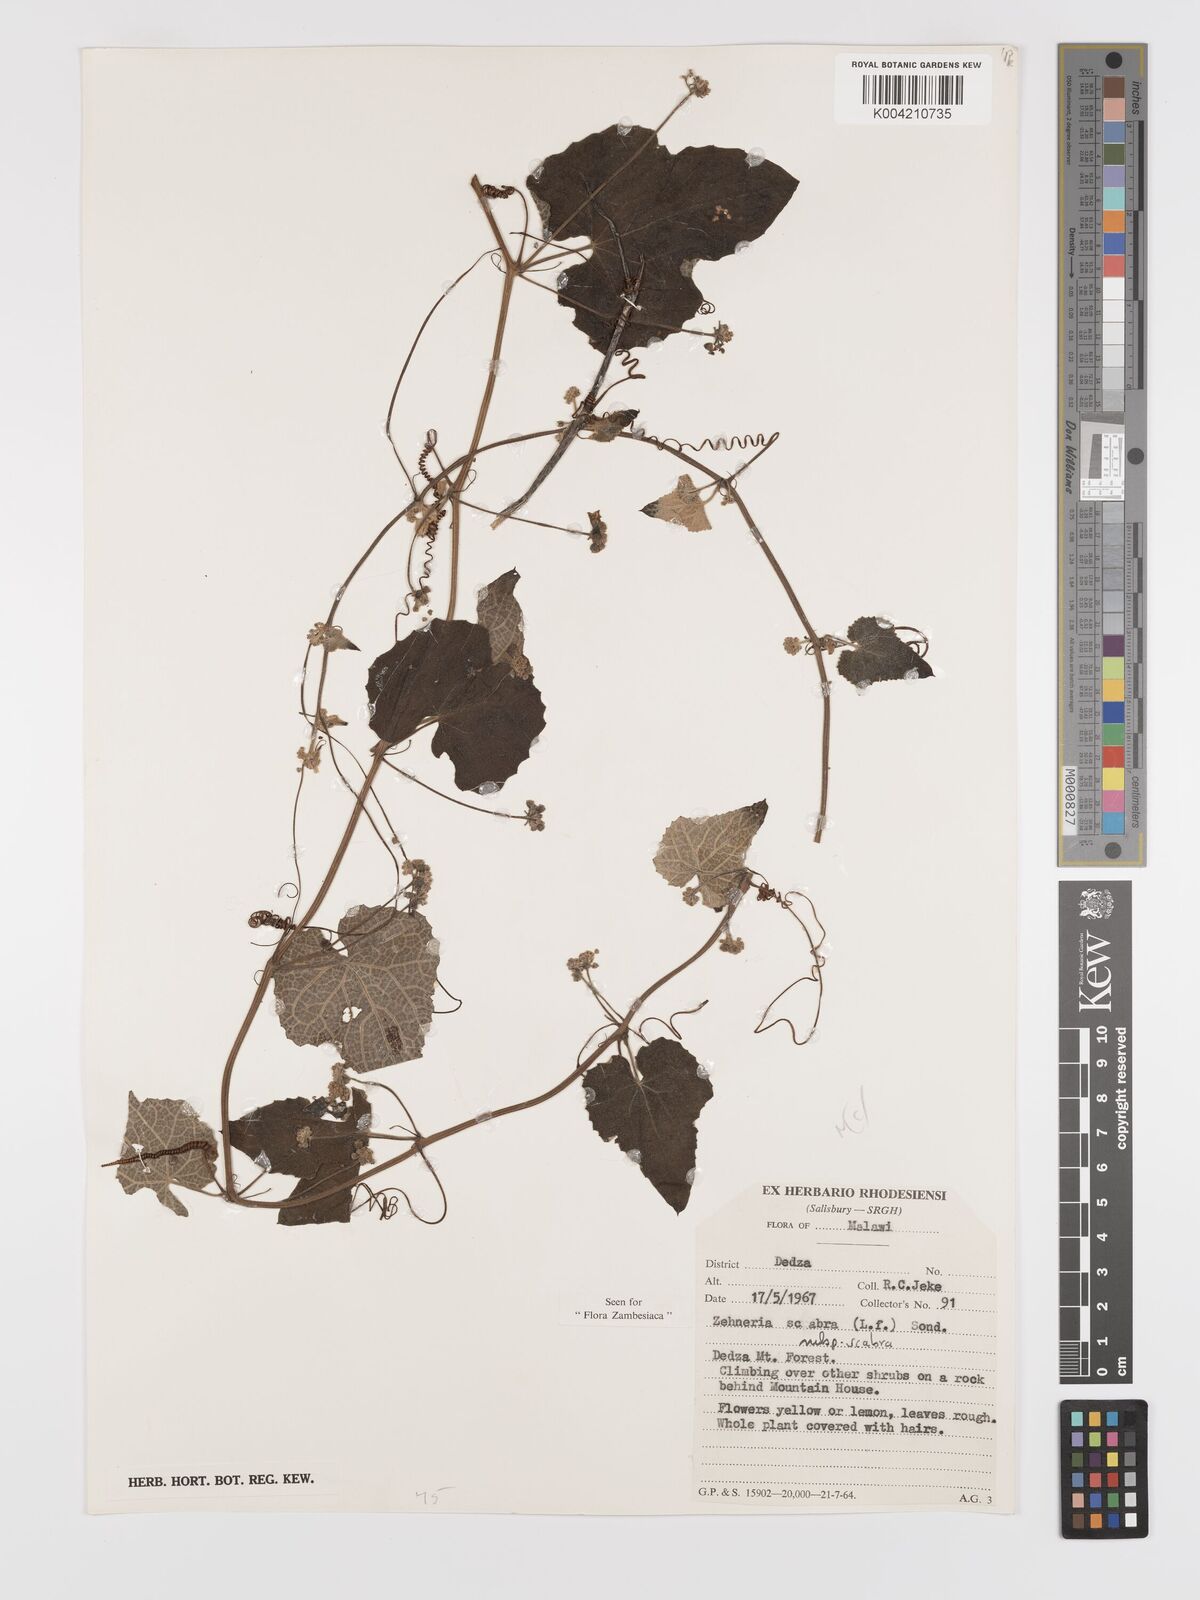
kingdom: Plantae
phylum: Tracheophyta
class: Magnoliopsida
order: Cucurbitales
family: Cucurbitaceae
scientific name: Cucurbitaceae
